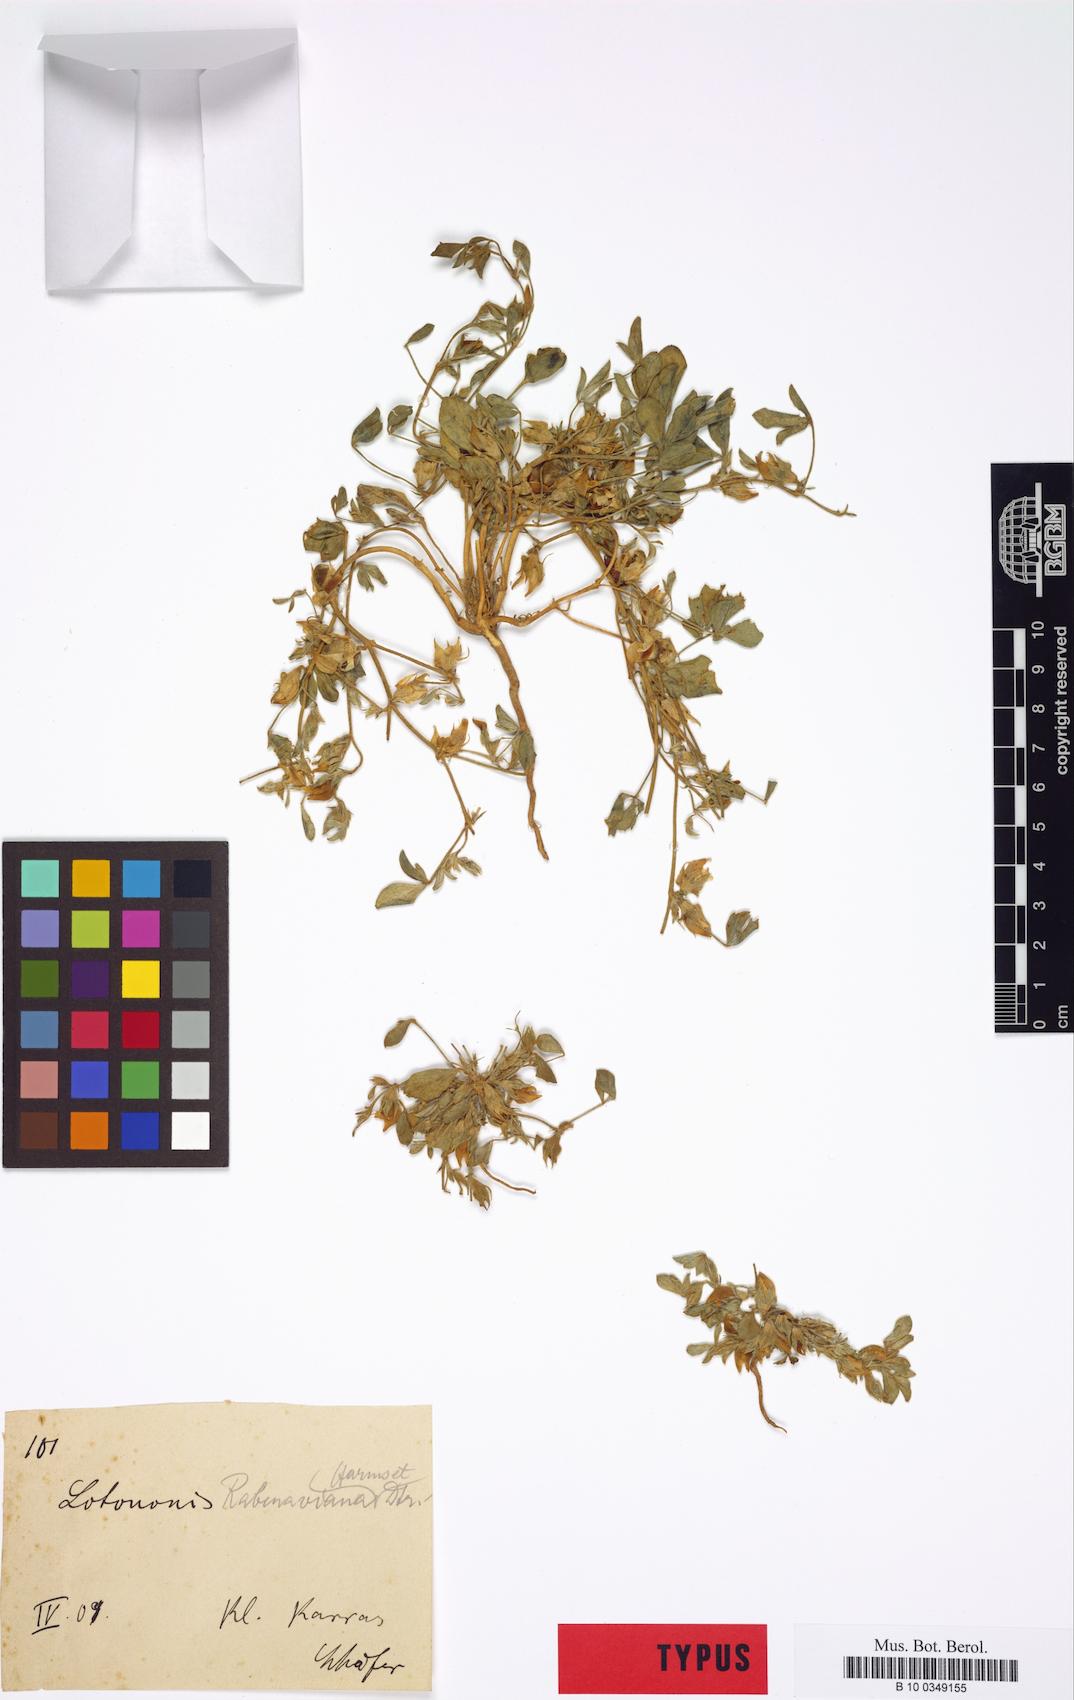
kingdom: Plantae
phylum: Tracheophyta
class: Magnoliopsida
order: Fabales
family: Fabaceae
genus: Lotononis
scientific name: Lotononis rabenaviana
